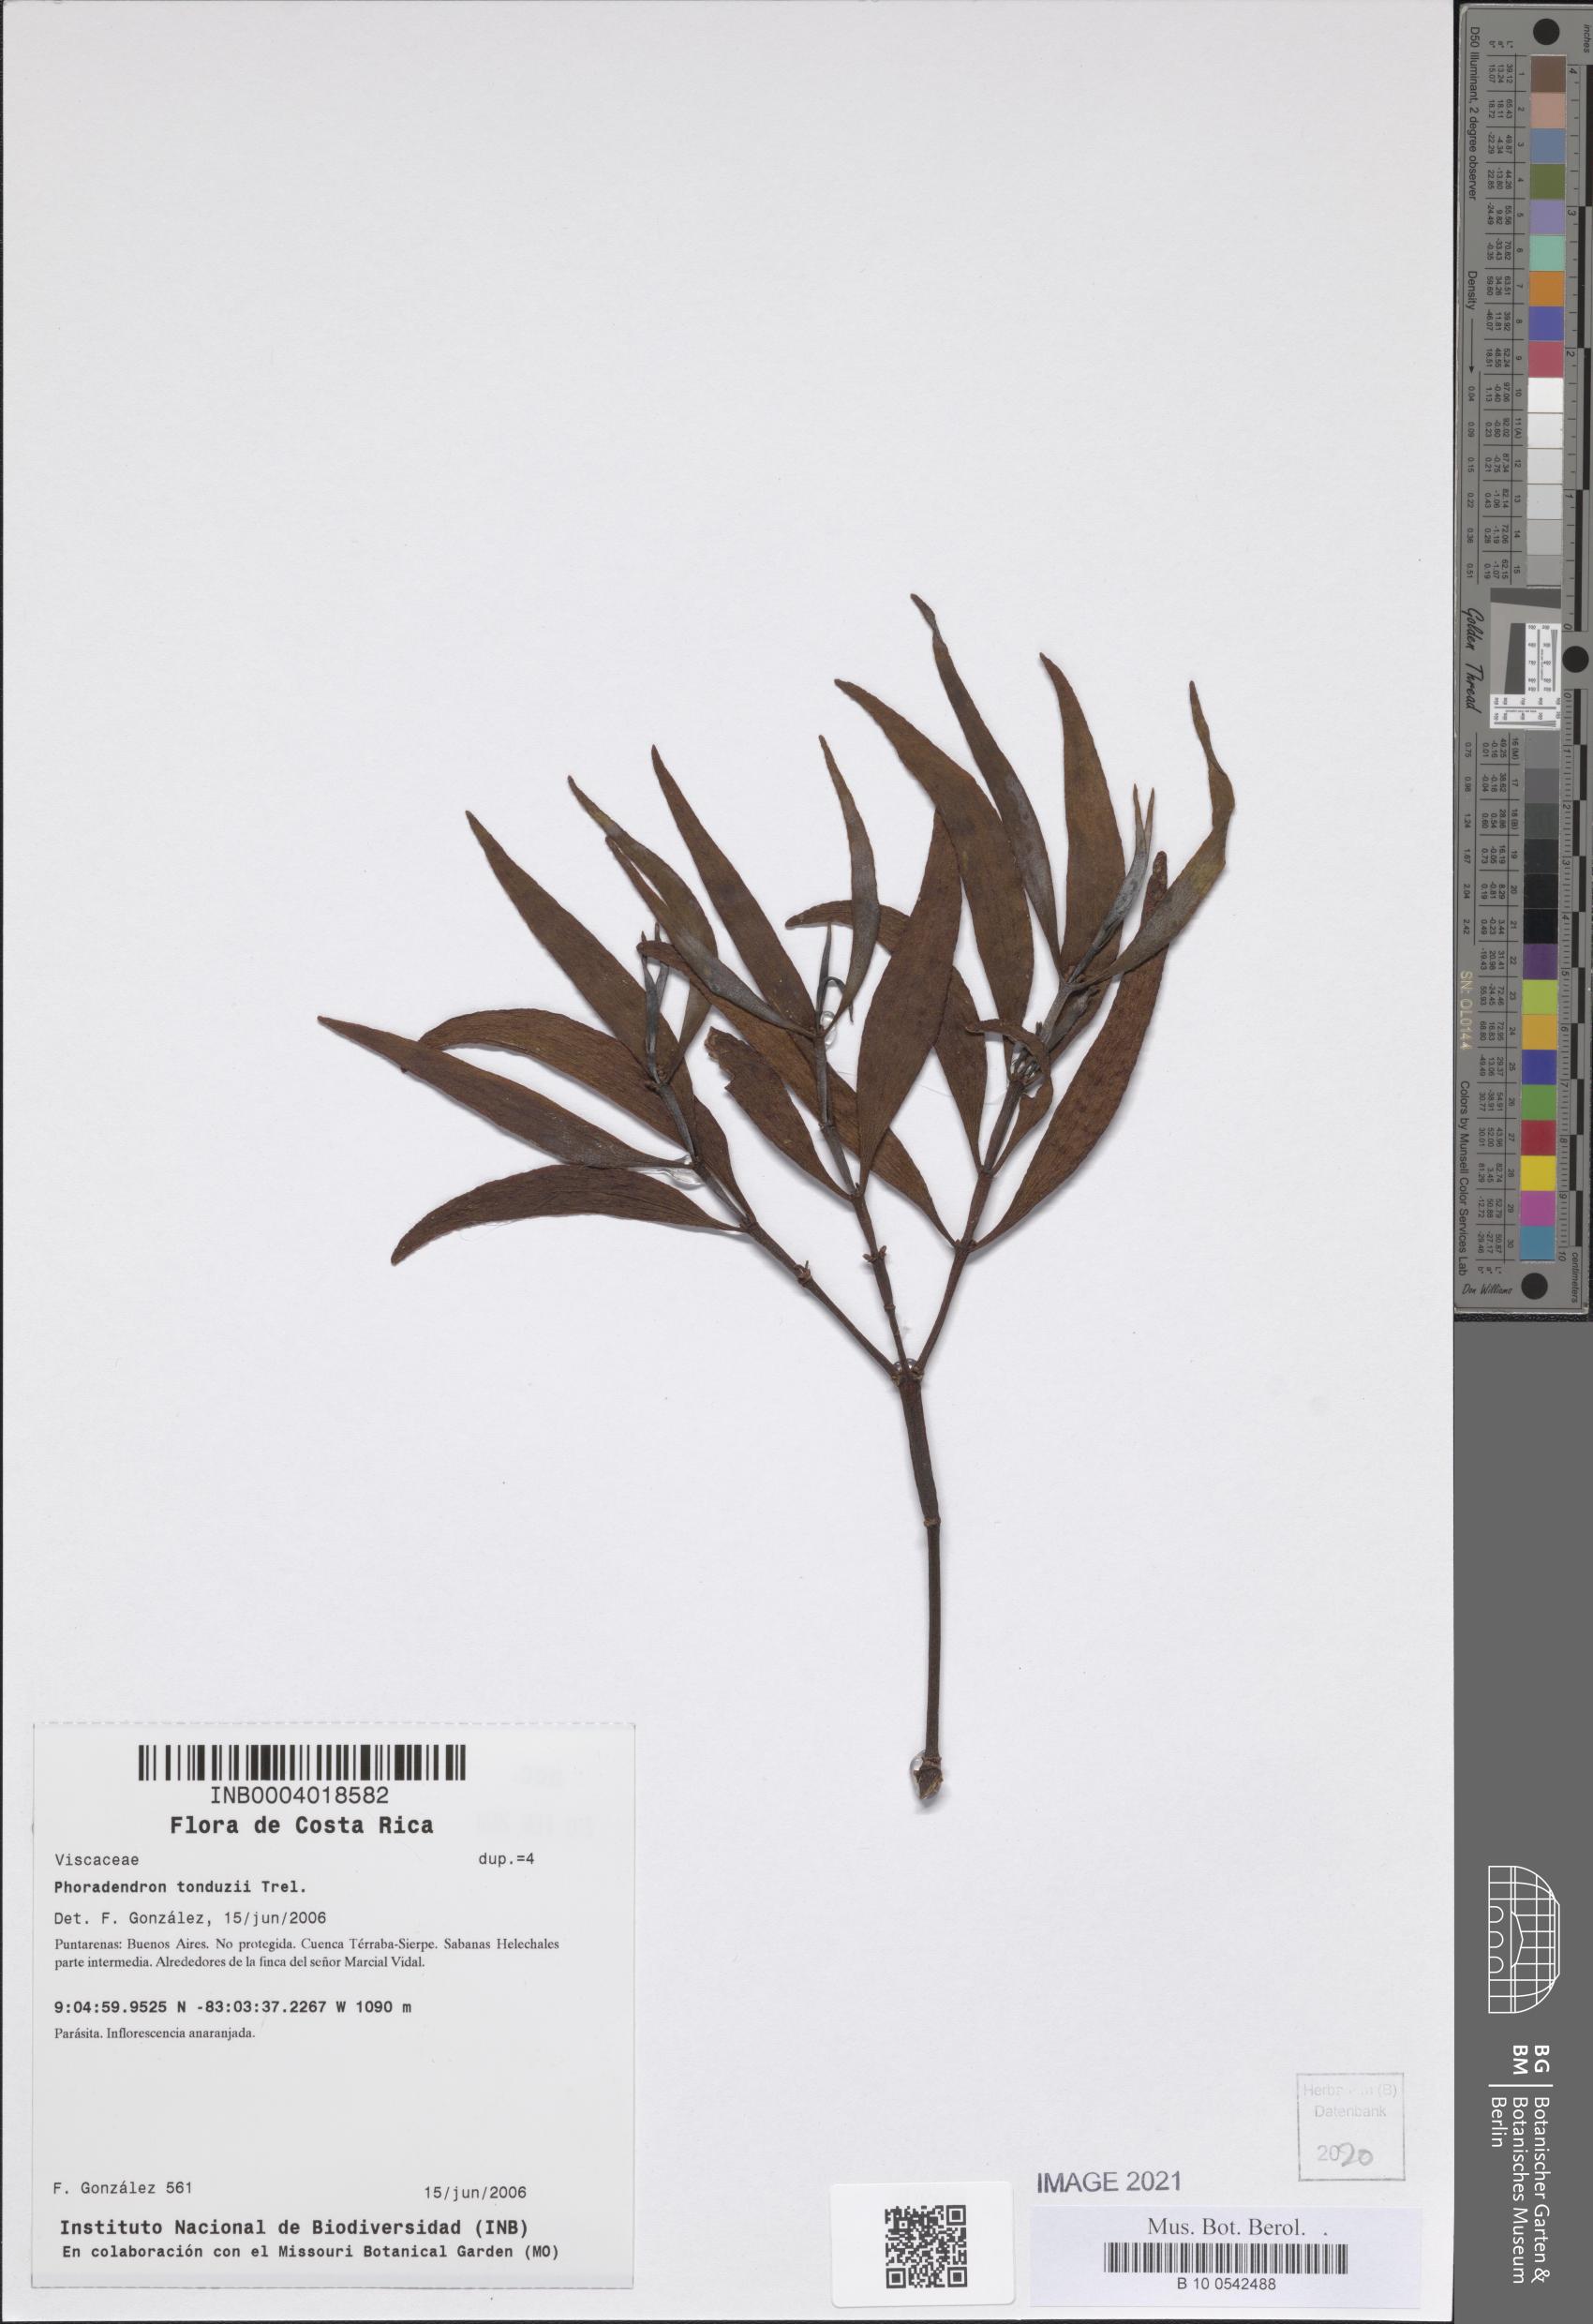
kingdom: Plantae
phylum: Tracheophyta
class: Magnoliopsida
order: Santalales
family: Viscaceae
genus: Phoradendron
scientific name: Phoradendron tonduzii
